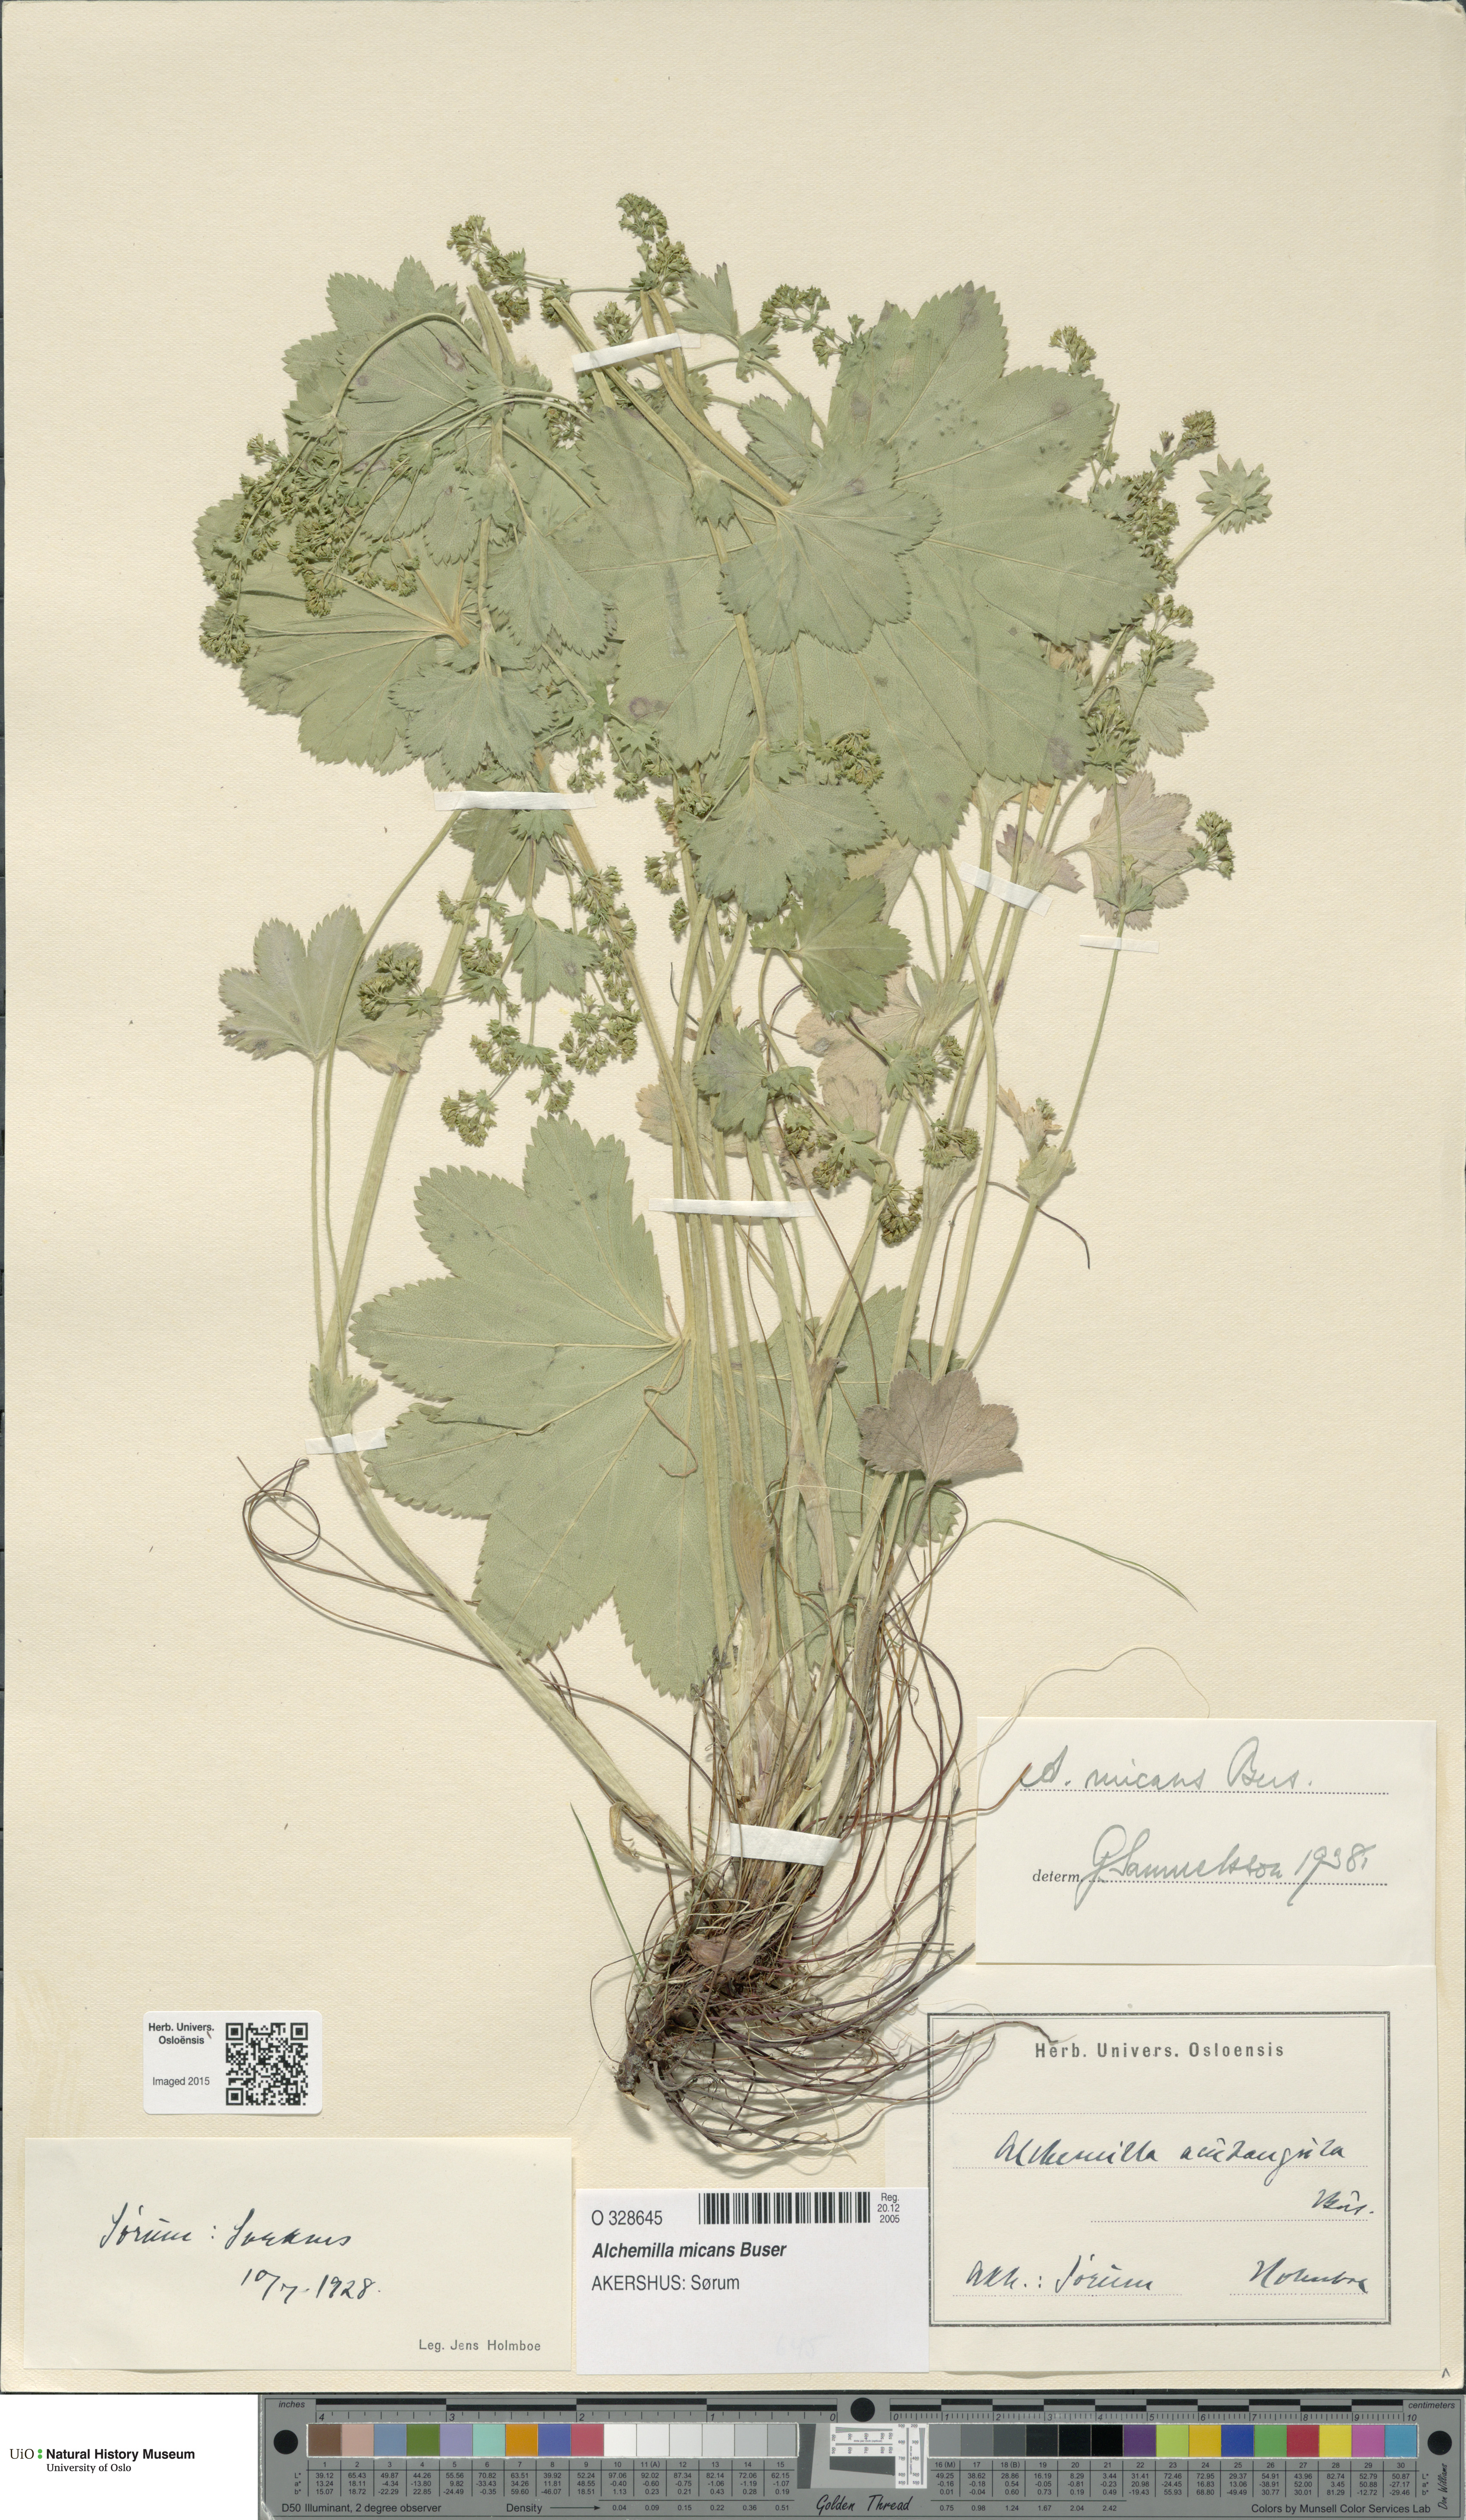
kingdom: Plantae
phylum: Tracheophyta
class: Magnoliopsida
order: Rosales
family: Rosaceae
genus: Alchemilla
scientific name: Alchemilla micans
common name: Gleaming lady's mantle
